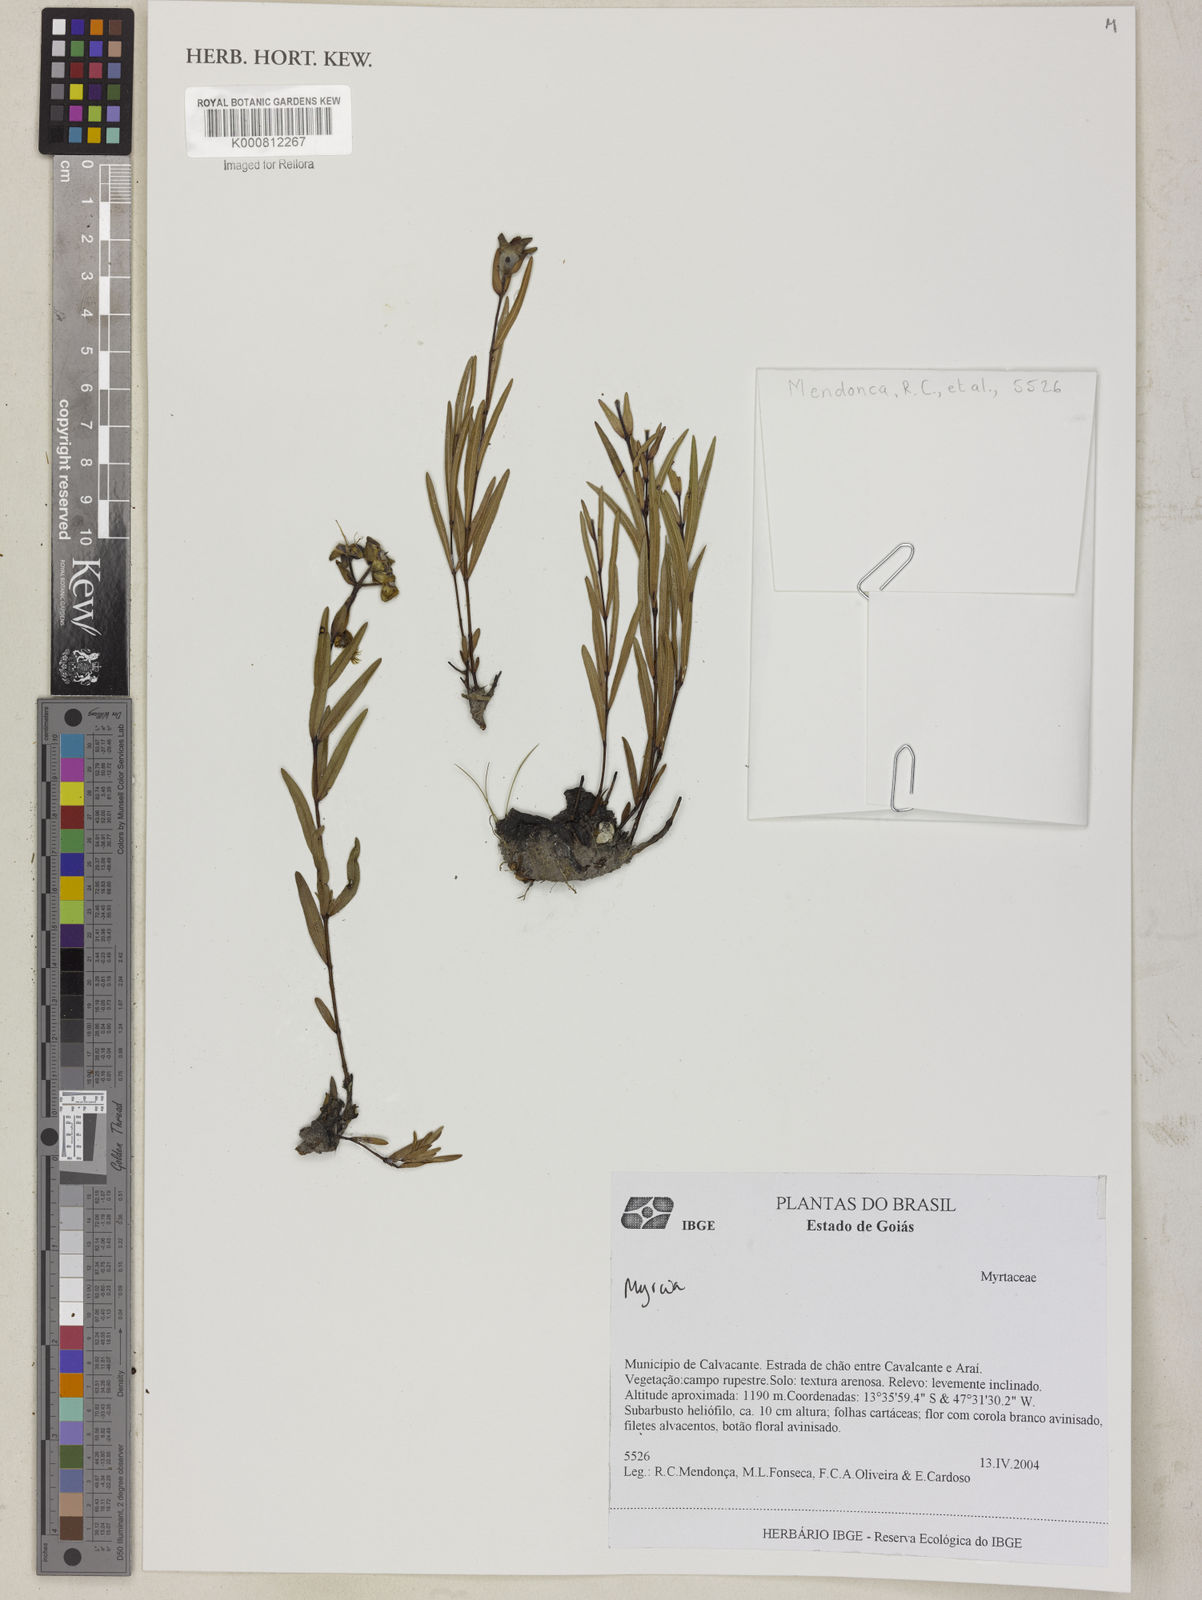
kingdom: Plantae
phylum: Tracheophyta
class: Magnoliopsida
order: Myrtales
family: Myrtaceae
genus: Myrcia
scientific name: Myrcia goyazensis
